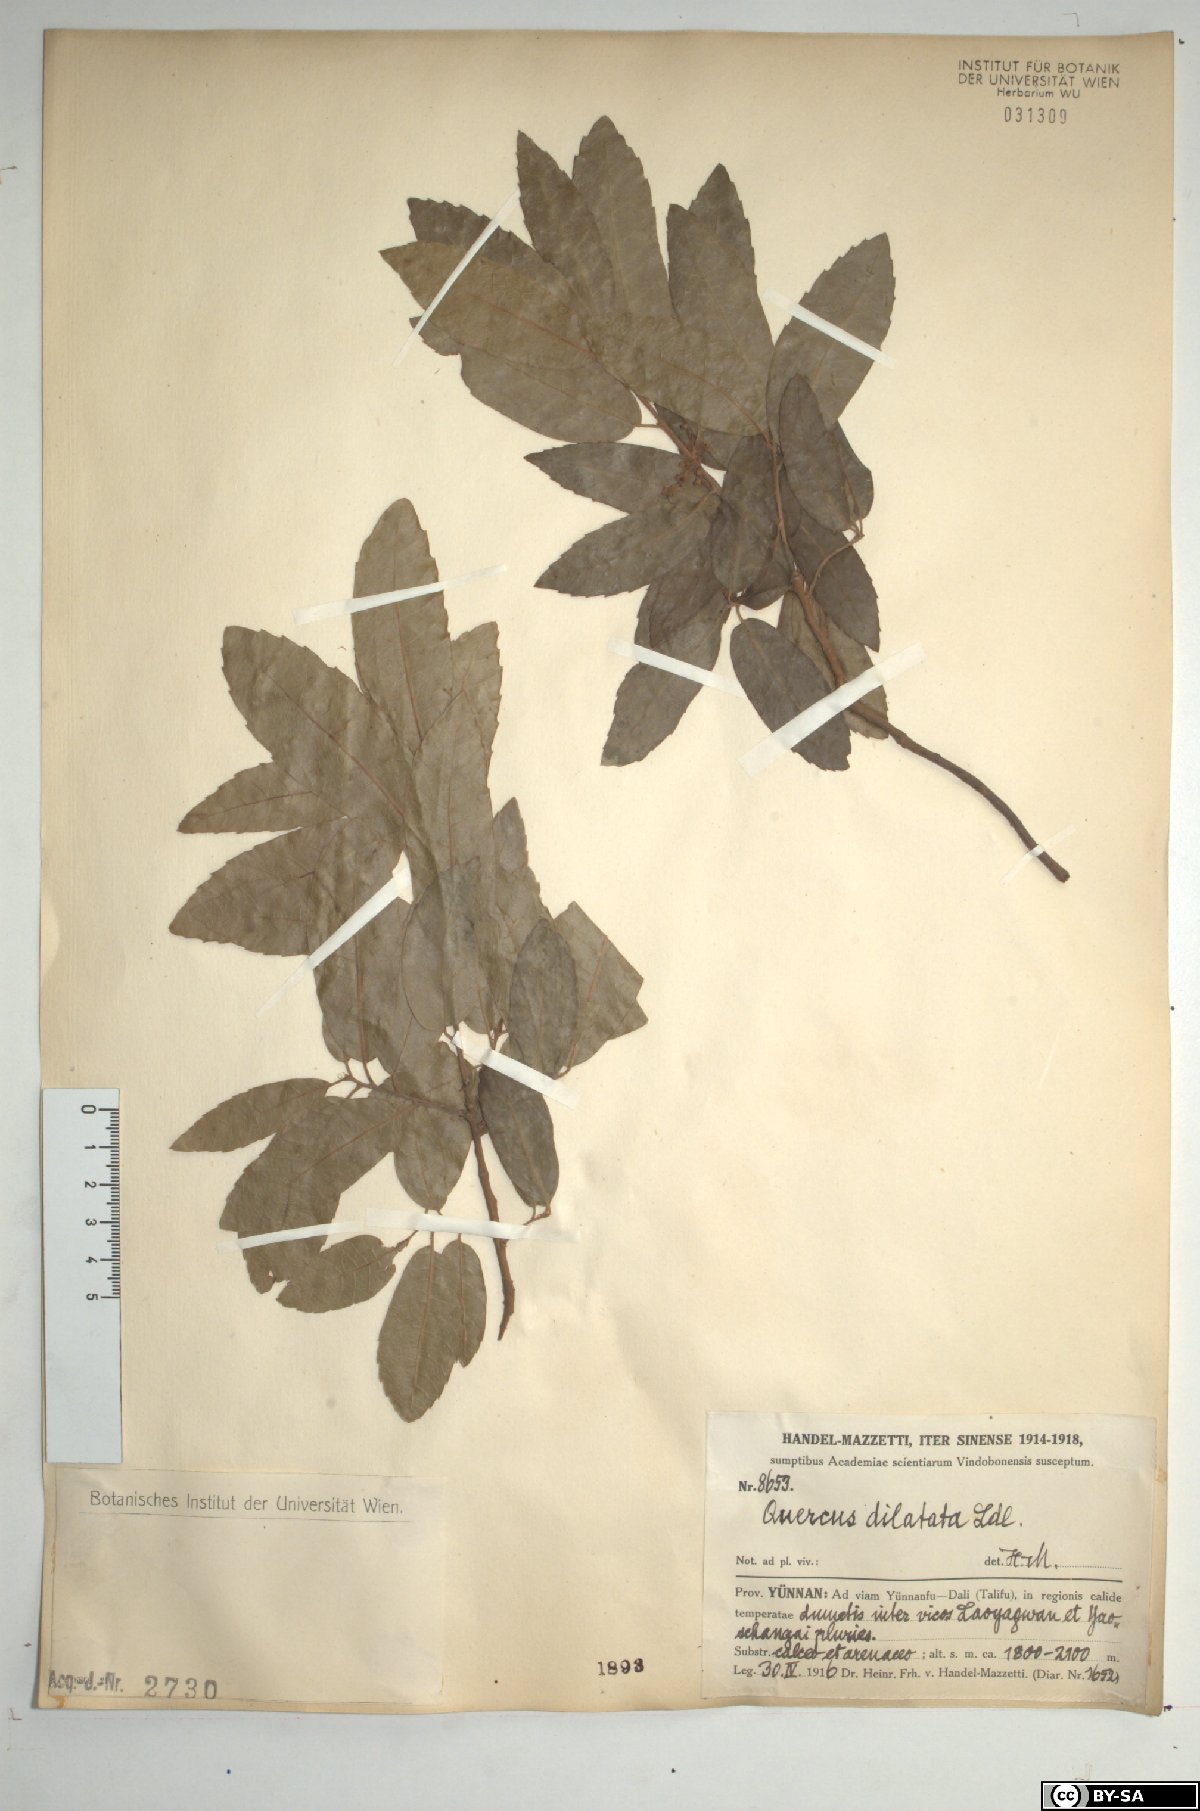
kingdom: Plantae
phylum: Tracheophyta
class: Magnoliopsida
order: Fagales
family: Fagaceae
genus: Quercus
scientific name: Quercus floribunda
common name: Moru
